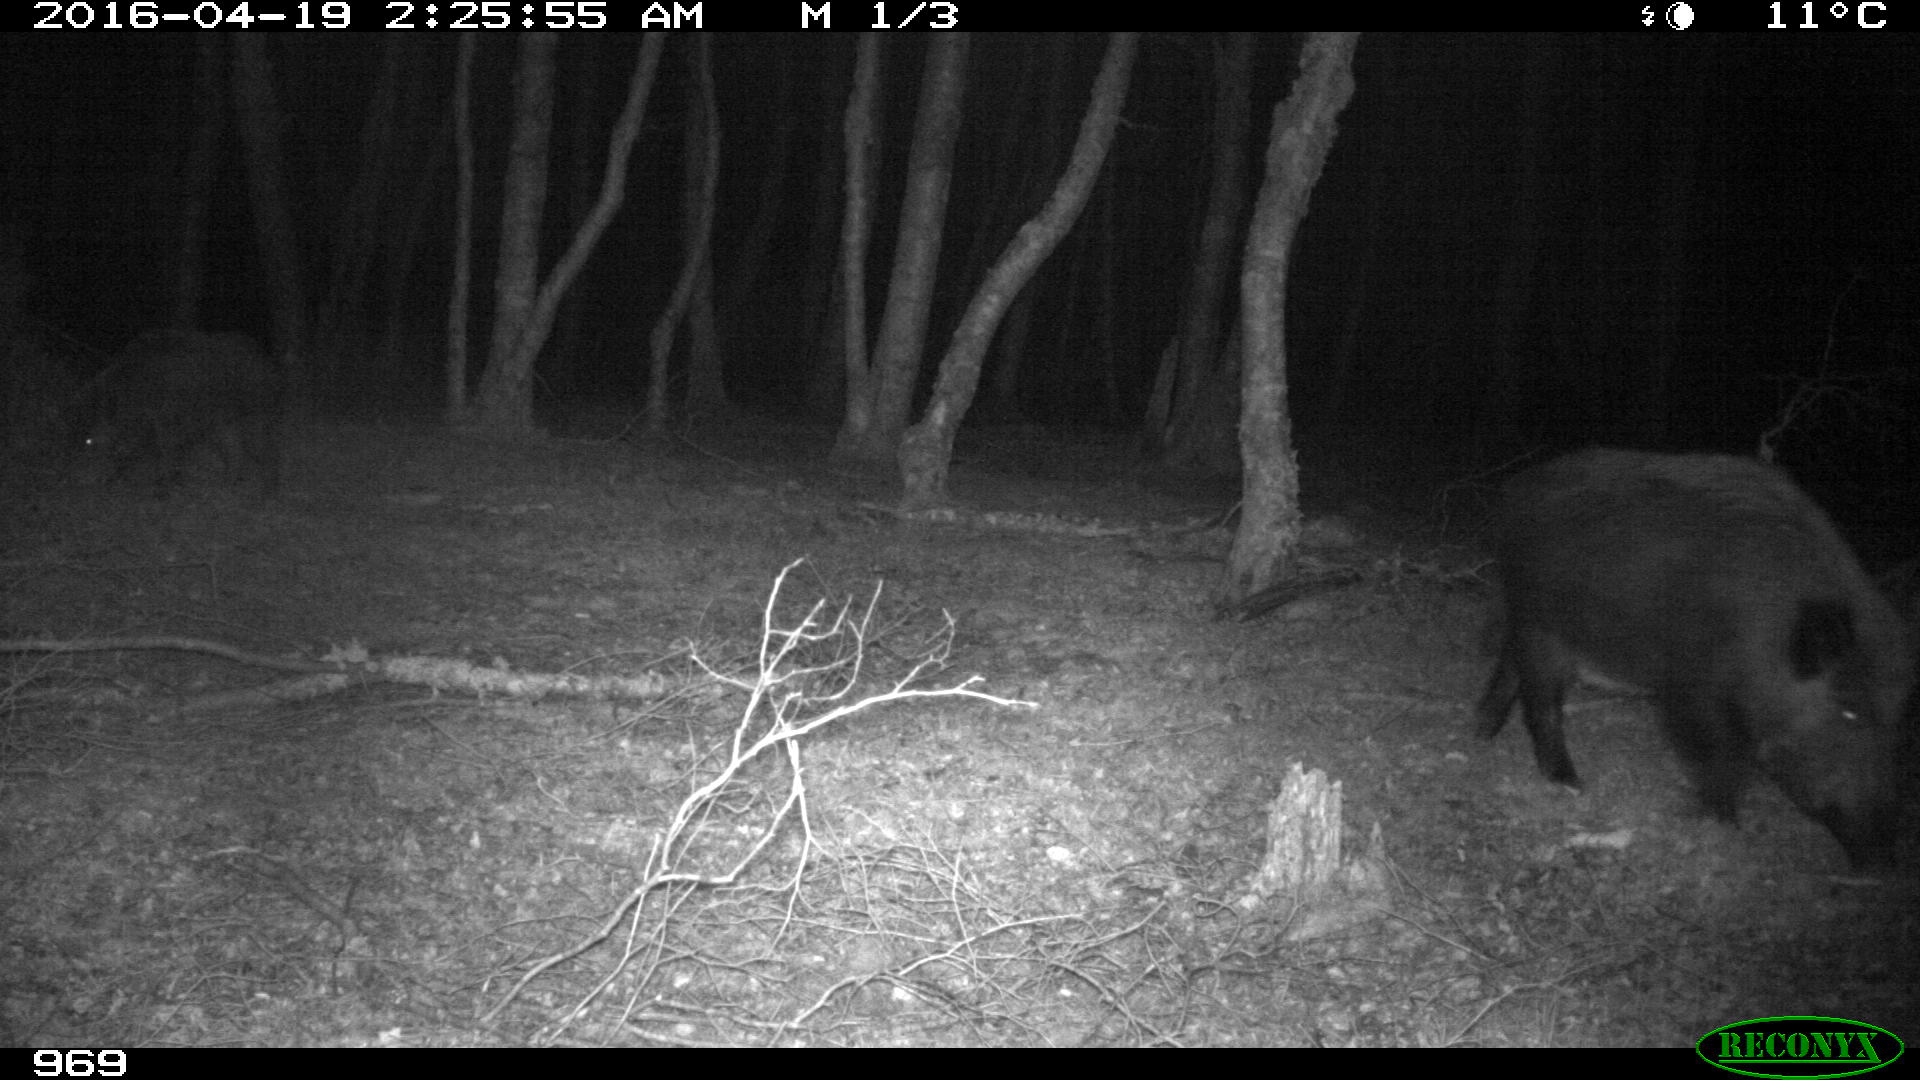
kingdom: Animalia
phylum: Chordata
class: Mammalia
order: Artiodactyla
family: Suidae
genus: Sus
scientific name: Sus scrofa
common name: Wild boar
